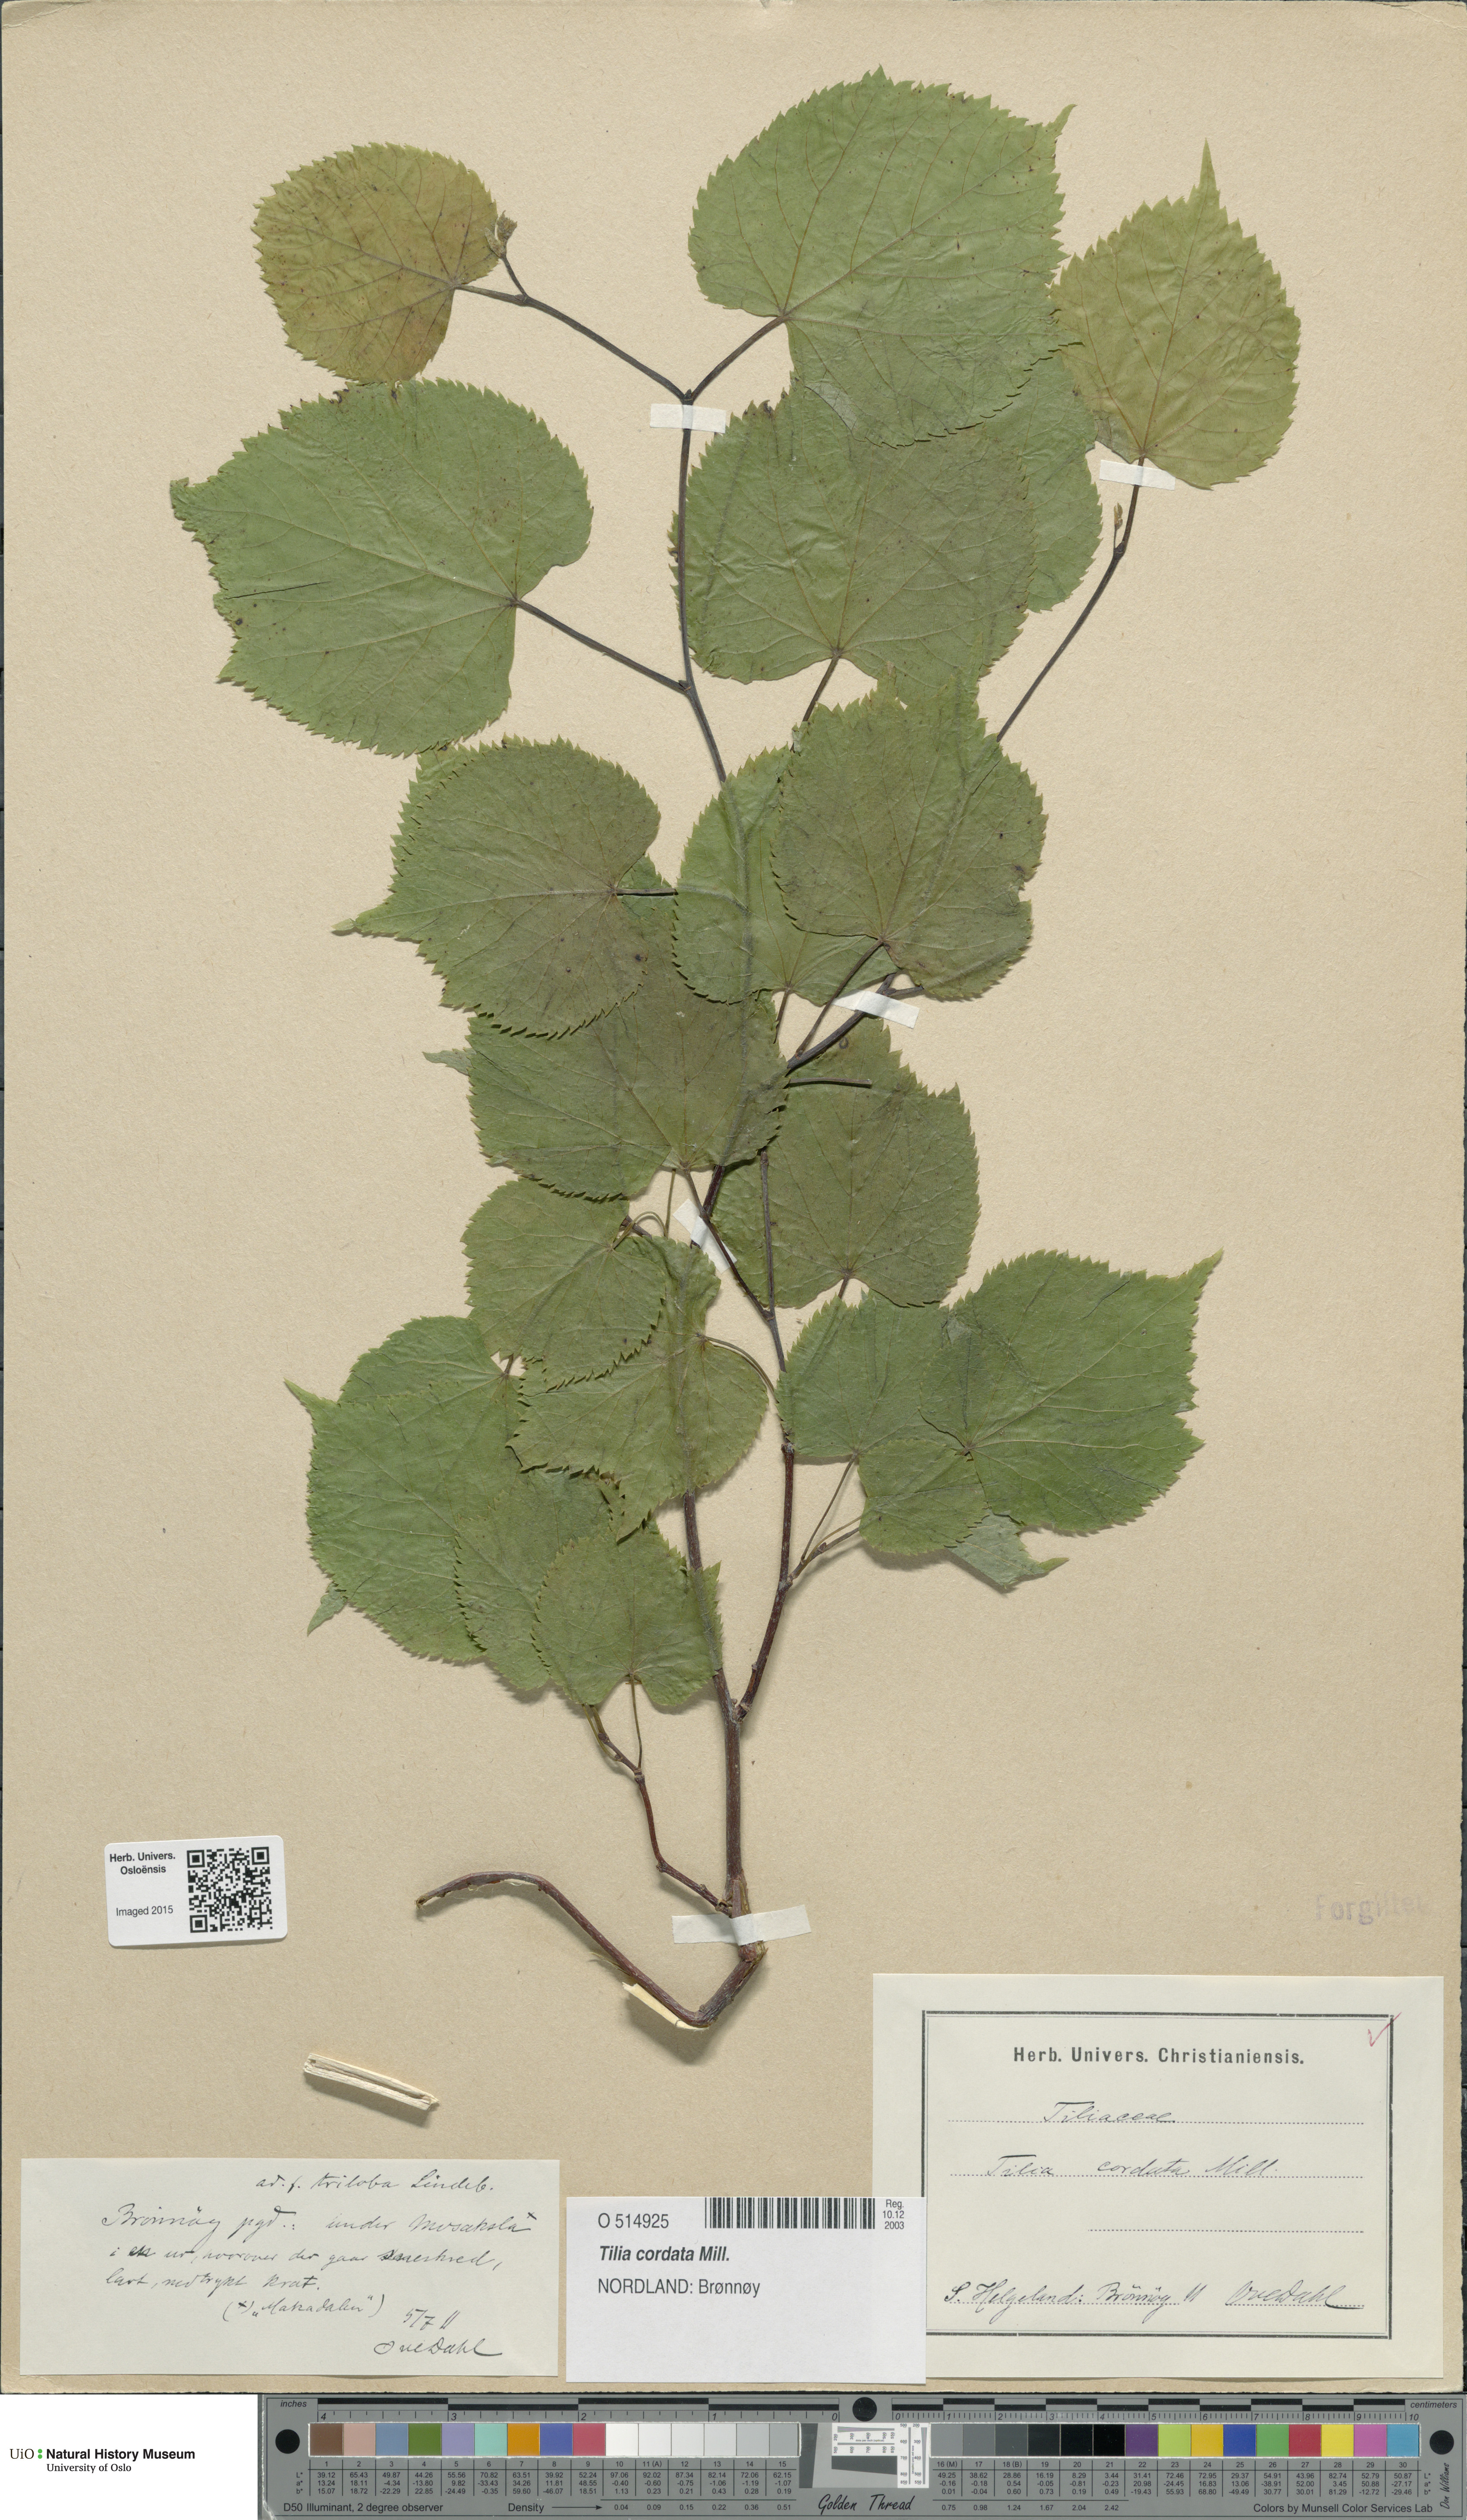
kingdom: Plantae
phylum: Tracheophyta
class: Magnoliopsida
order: Malvales
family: Malvaceae
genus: Tilia
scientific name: Tilia cordata
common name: Small-leaved lime
